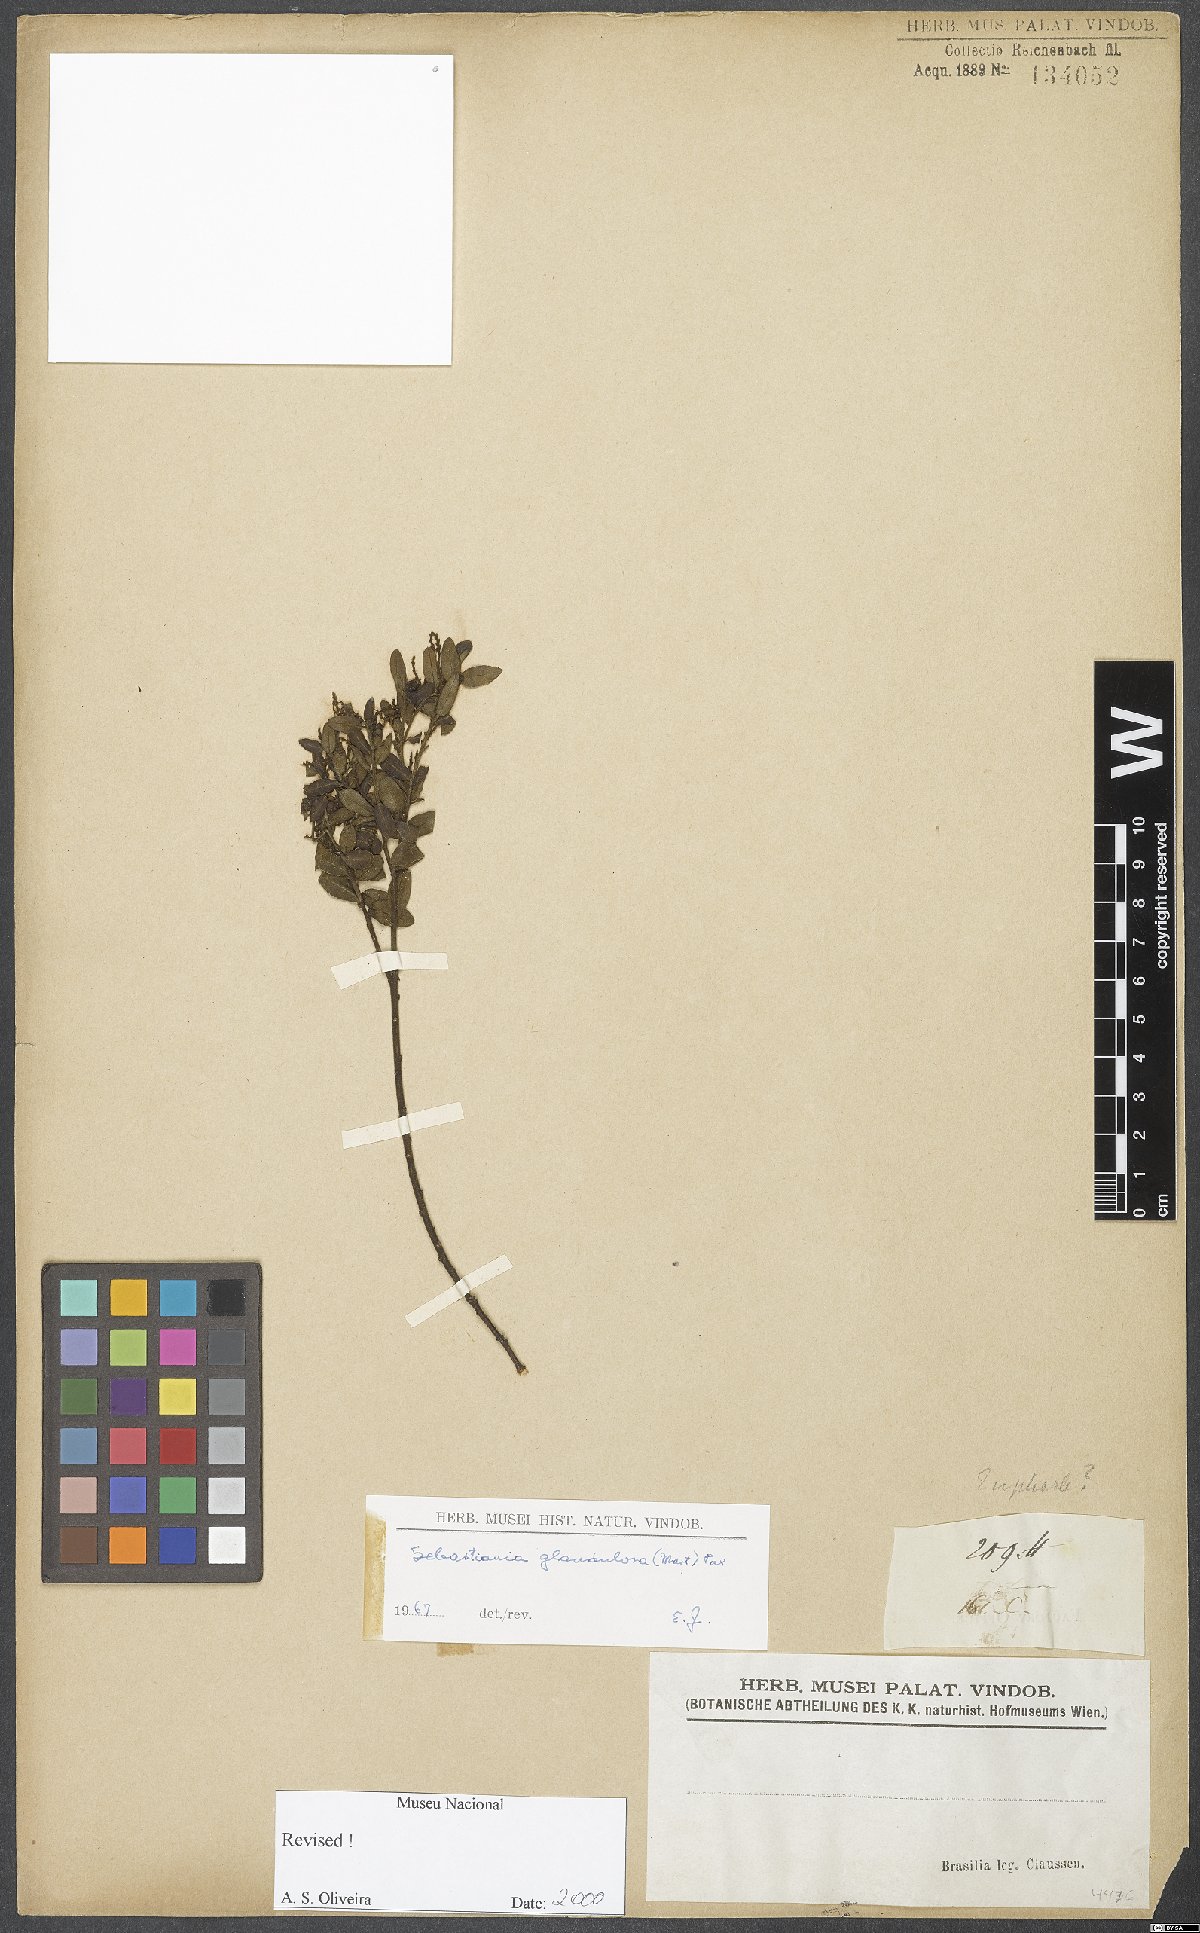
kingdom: Plantae
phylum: Tracheophyta
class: Magnoliopsida
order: Malpighiales
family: Euphorbiaceae
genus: Microstachys
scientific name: Microstachys corniculata
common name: Hato tejas
